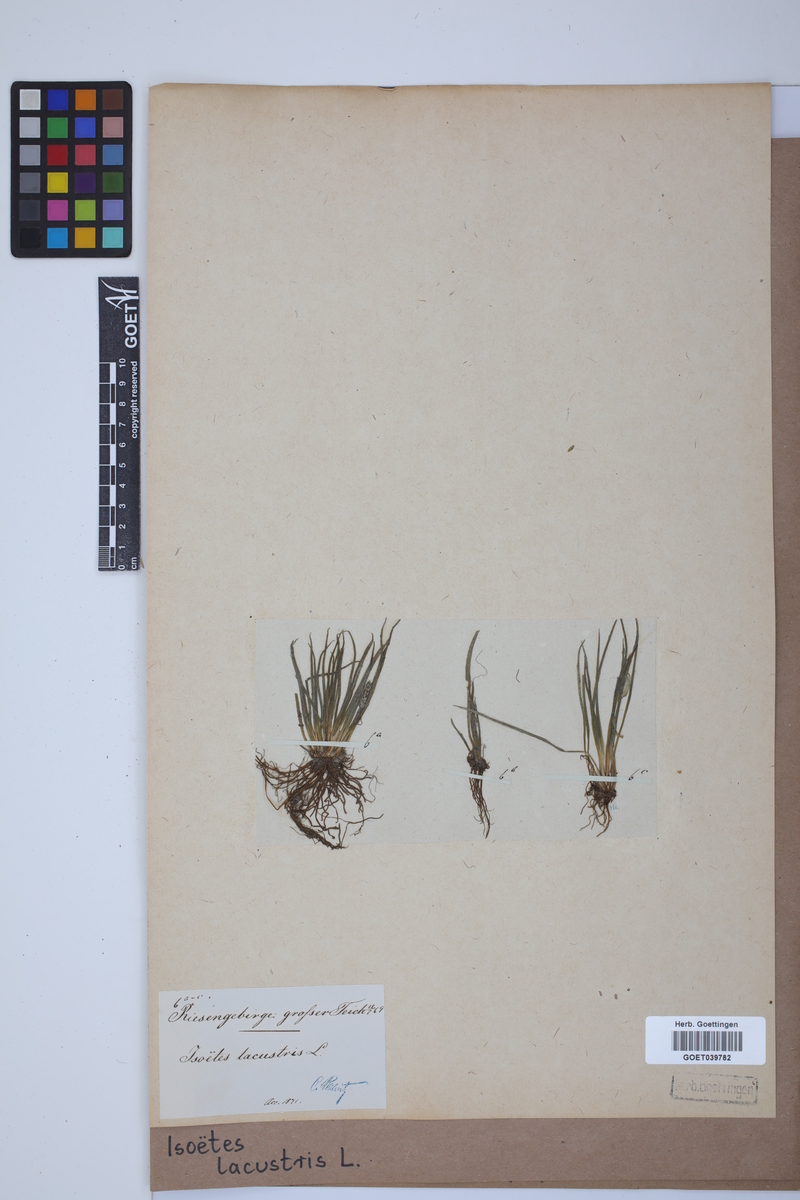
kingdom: Plantae
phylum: Tracheophyta
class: Lycopodiopsida
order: Isoetales
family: Isoetaceae
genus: Isoetes
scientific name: Isoetes lacustris
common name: Common quillwort
